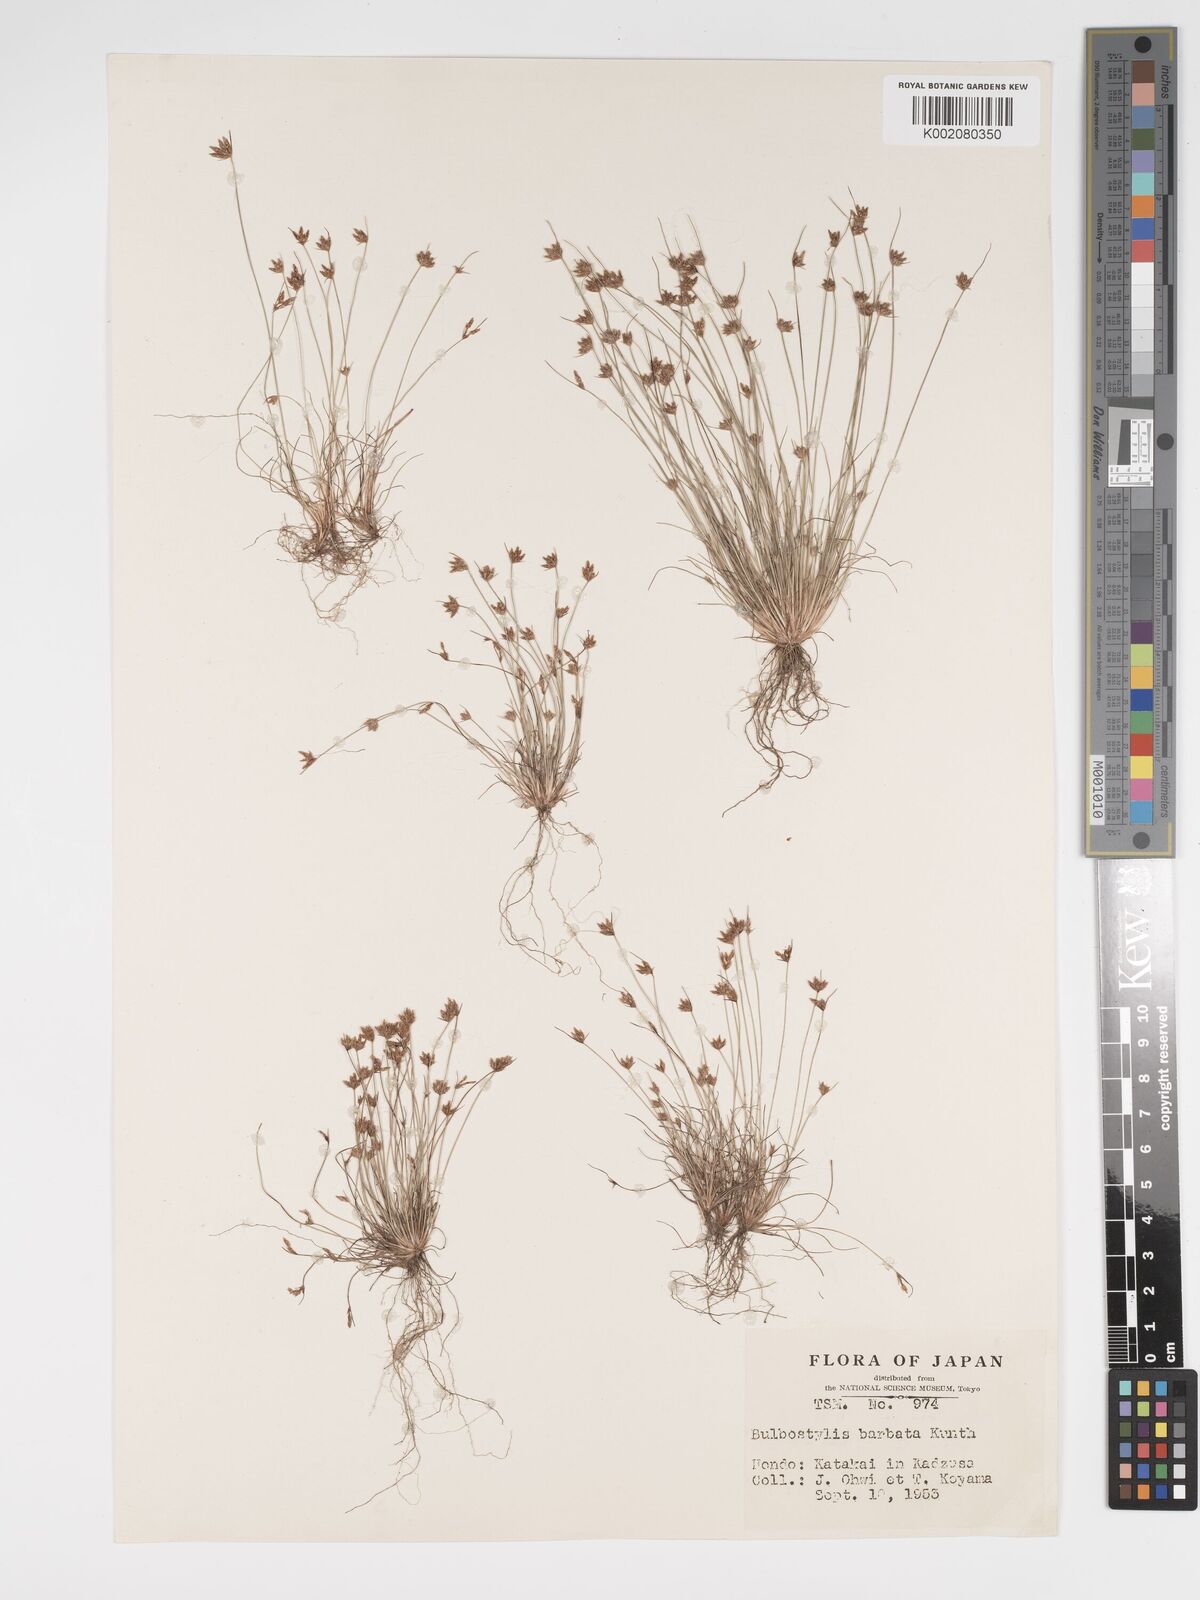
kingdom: Plantae
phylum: Tracheophyta
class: Liliopsida
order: Poales
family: Cyperaceae
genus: Bulbostylis
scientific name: Bulbostylis barbata
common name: Watergrass
